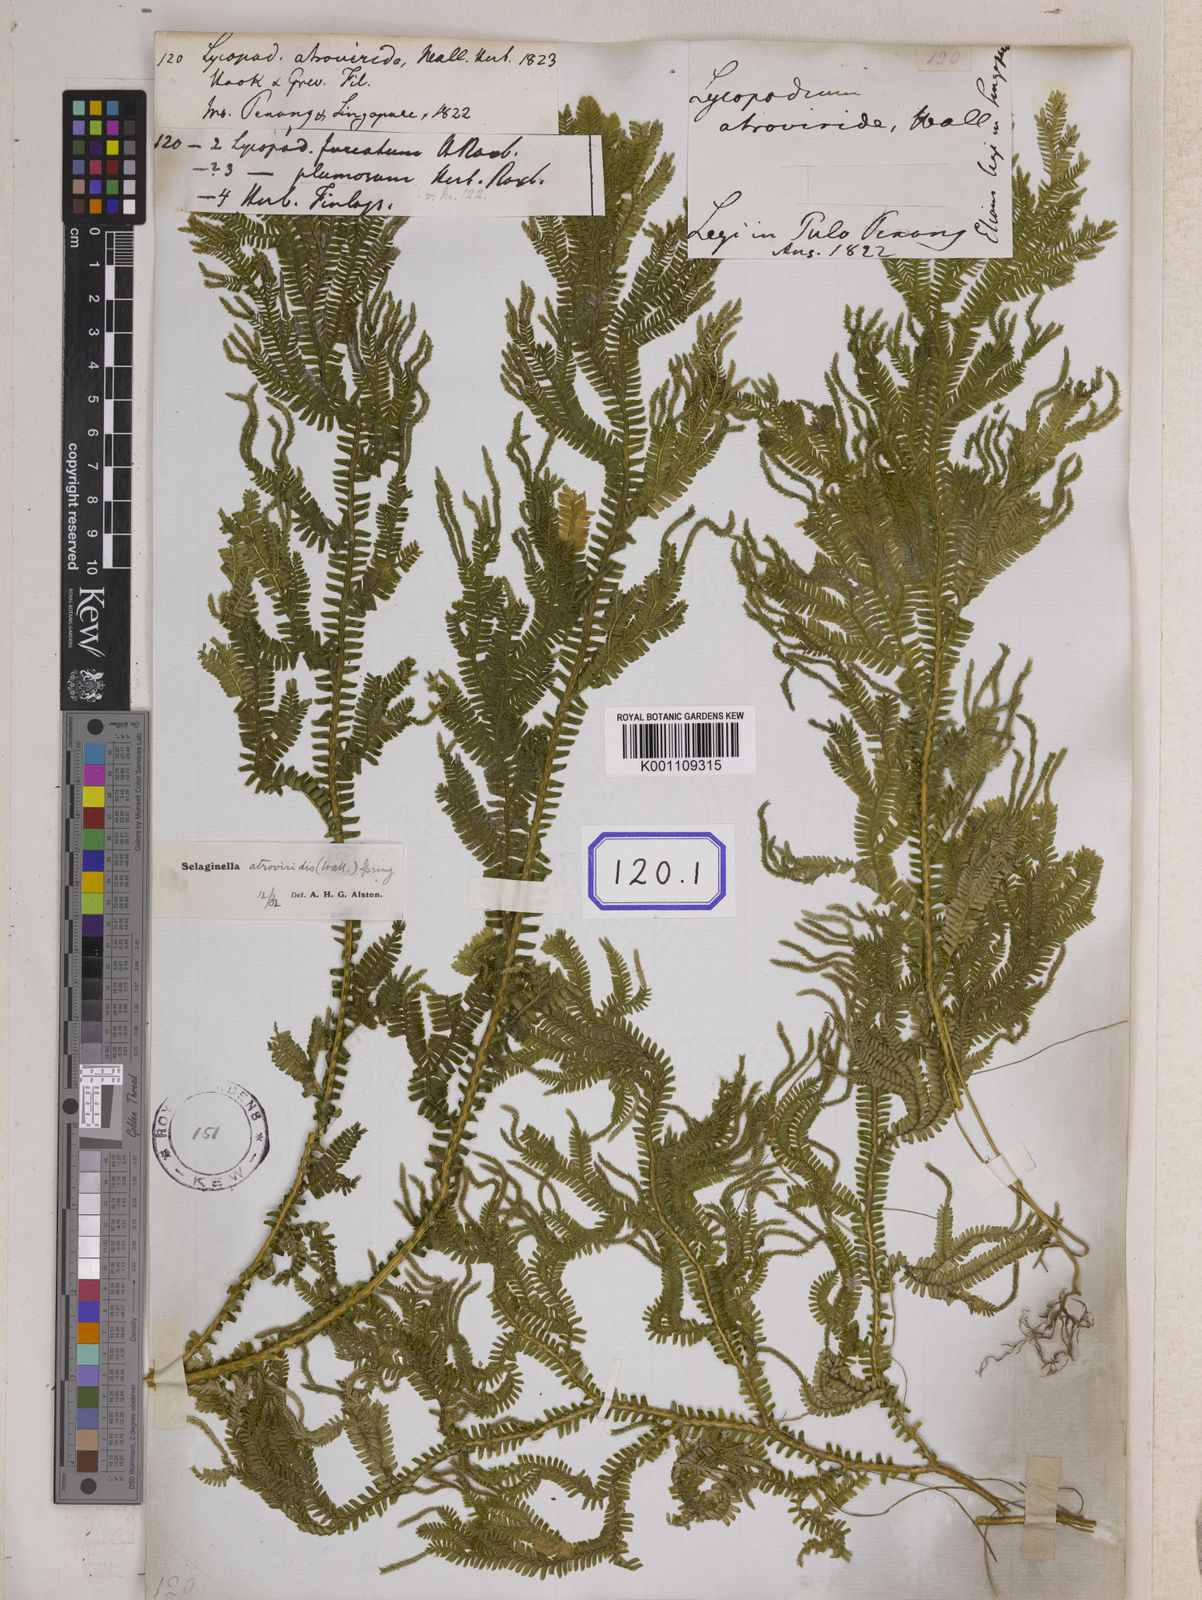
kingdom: Plantae
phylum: Tracheophyta
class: Lycopodiopsida
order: Selaginellales
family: Selaginellaceae
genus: Selaginella
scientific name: Selaginella intermedia
